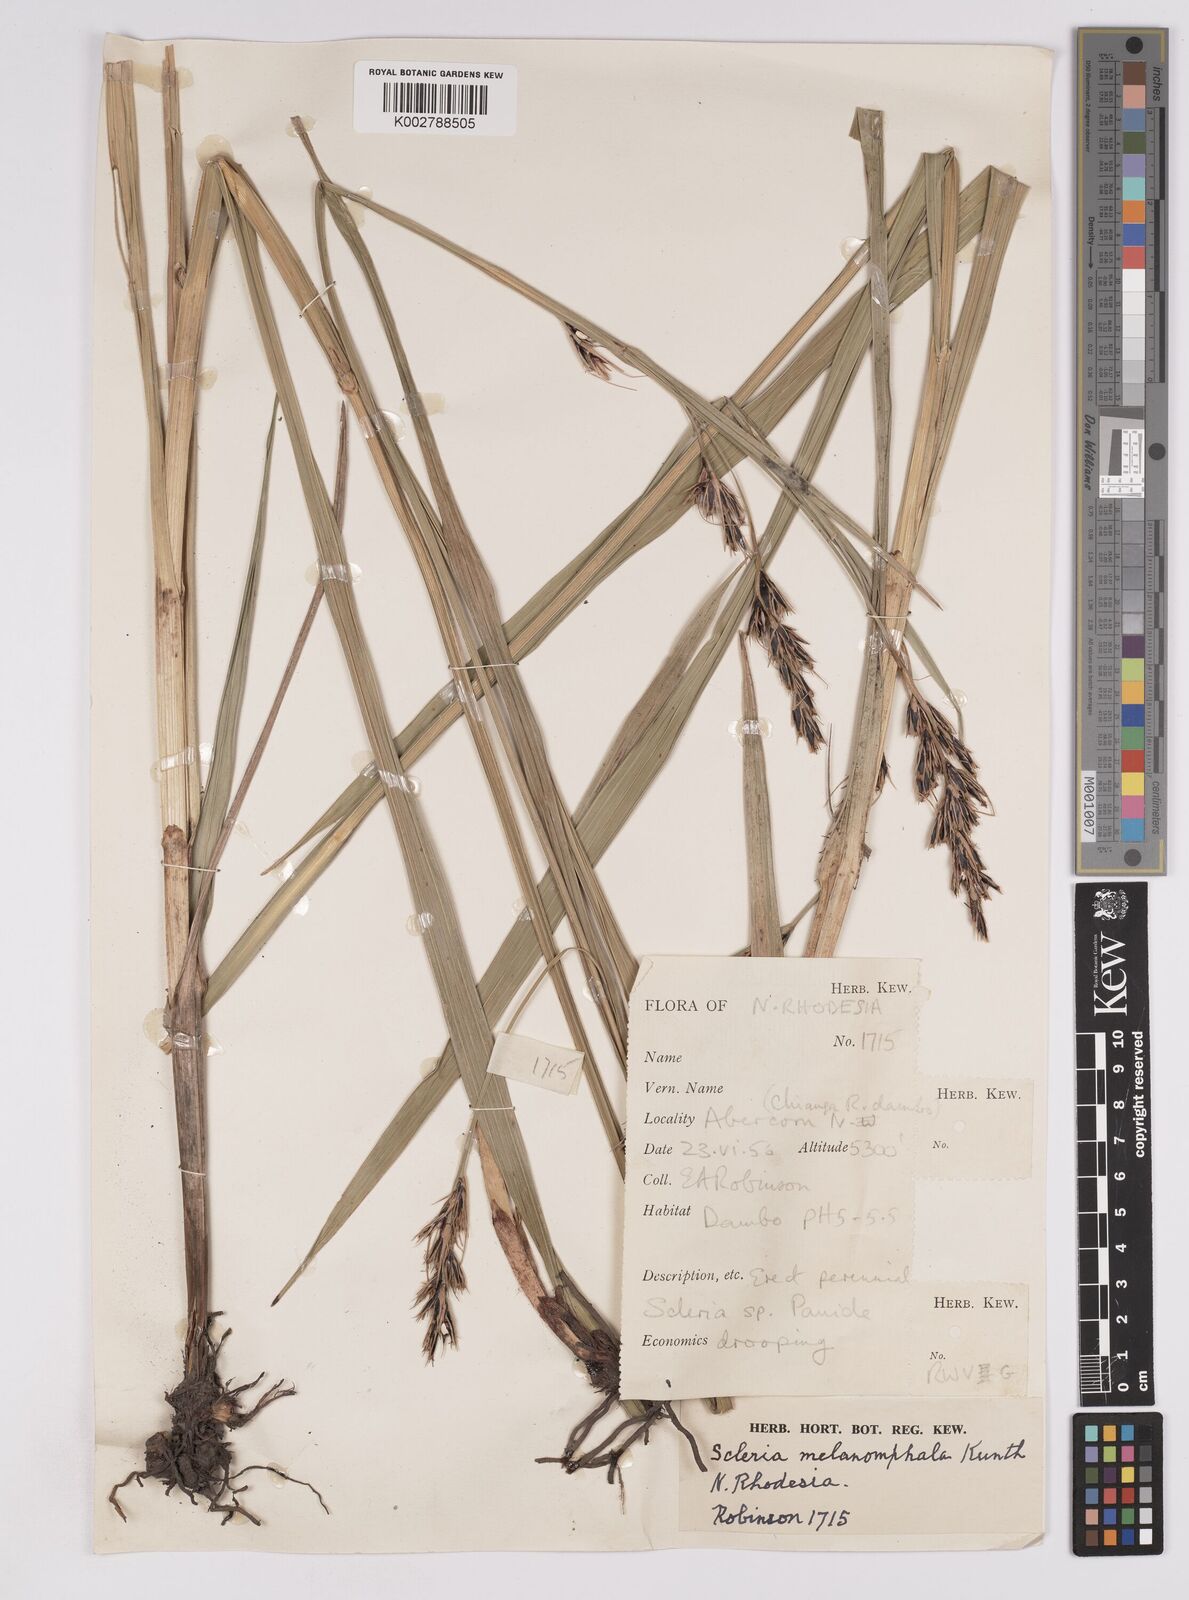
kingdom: Plantae
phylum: Tracheophyta
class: Liliopsida
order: Poales
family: Cyperaceae
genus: Scleria
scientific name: Scleria melanomphala
